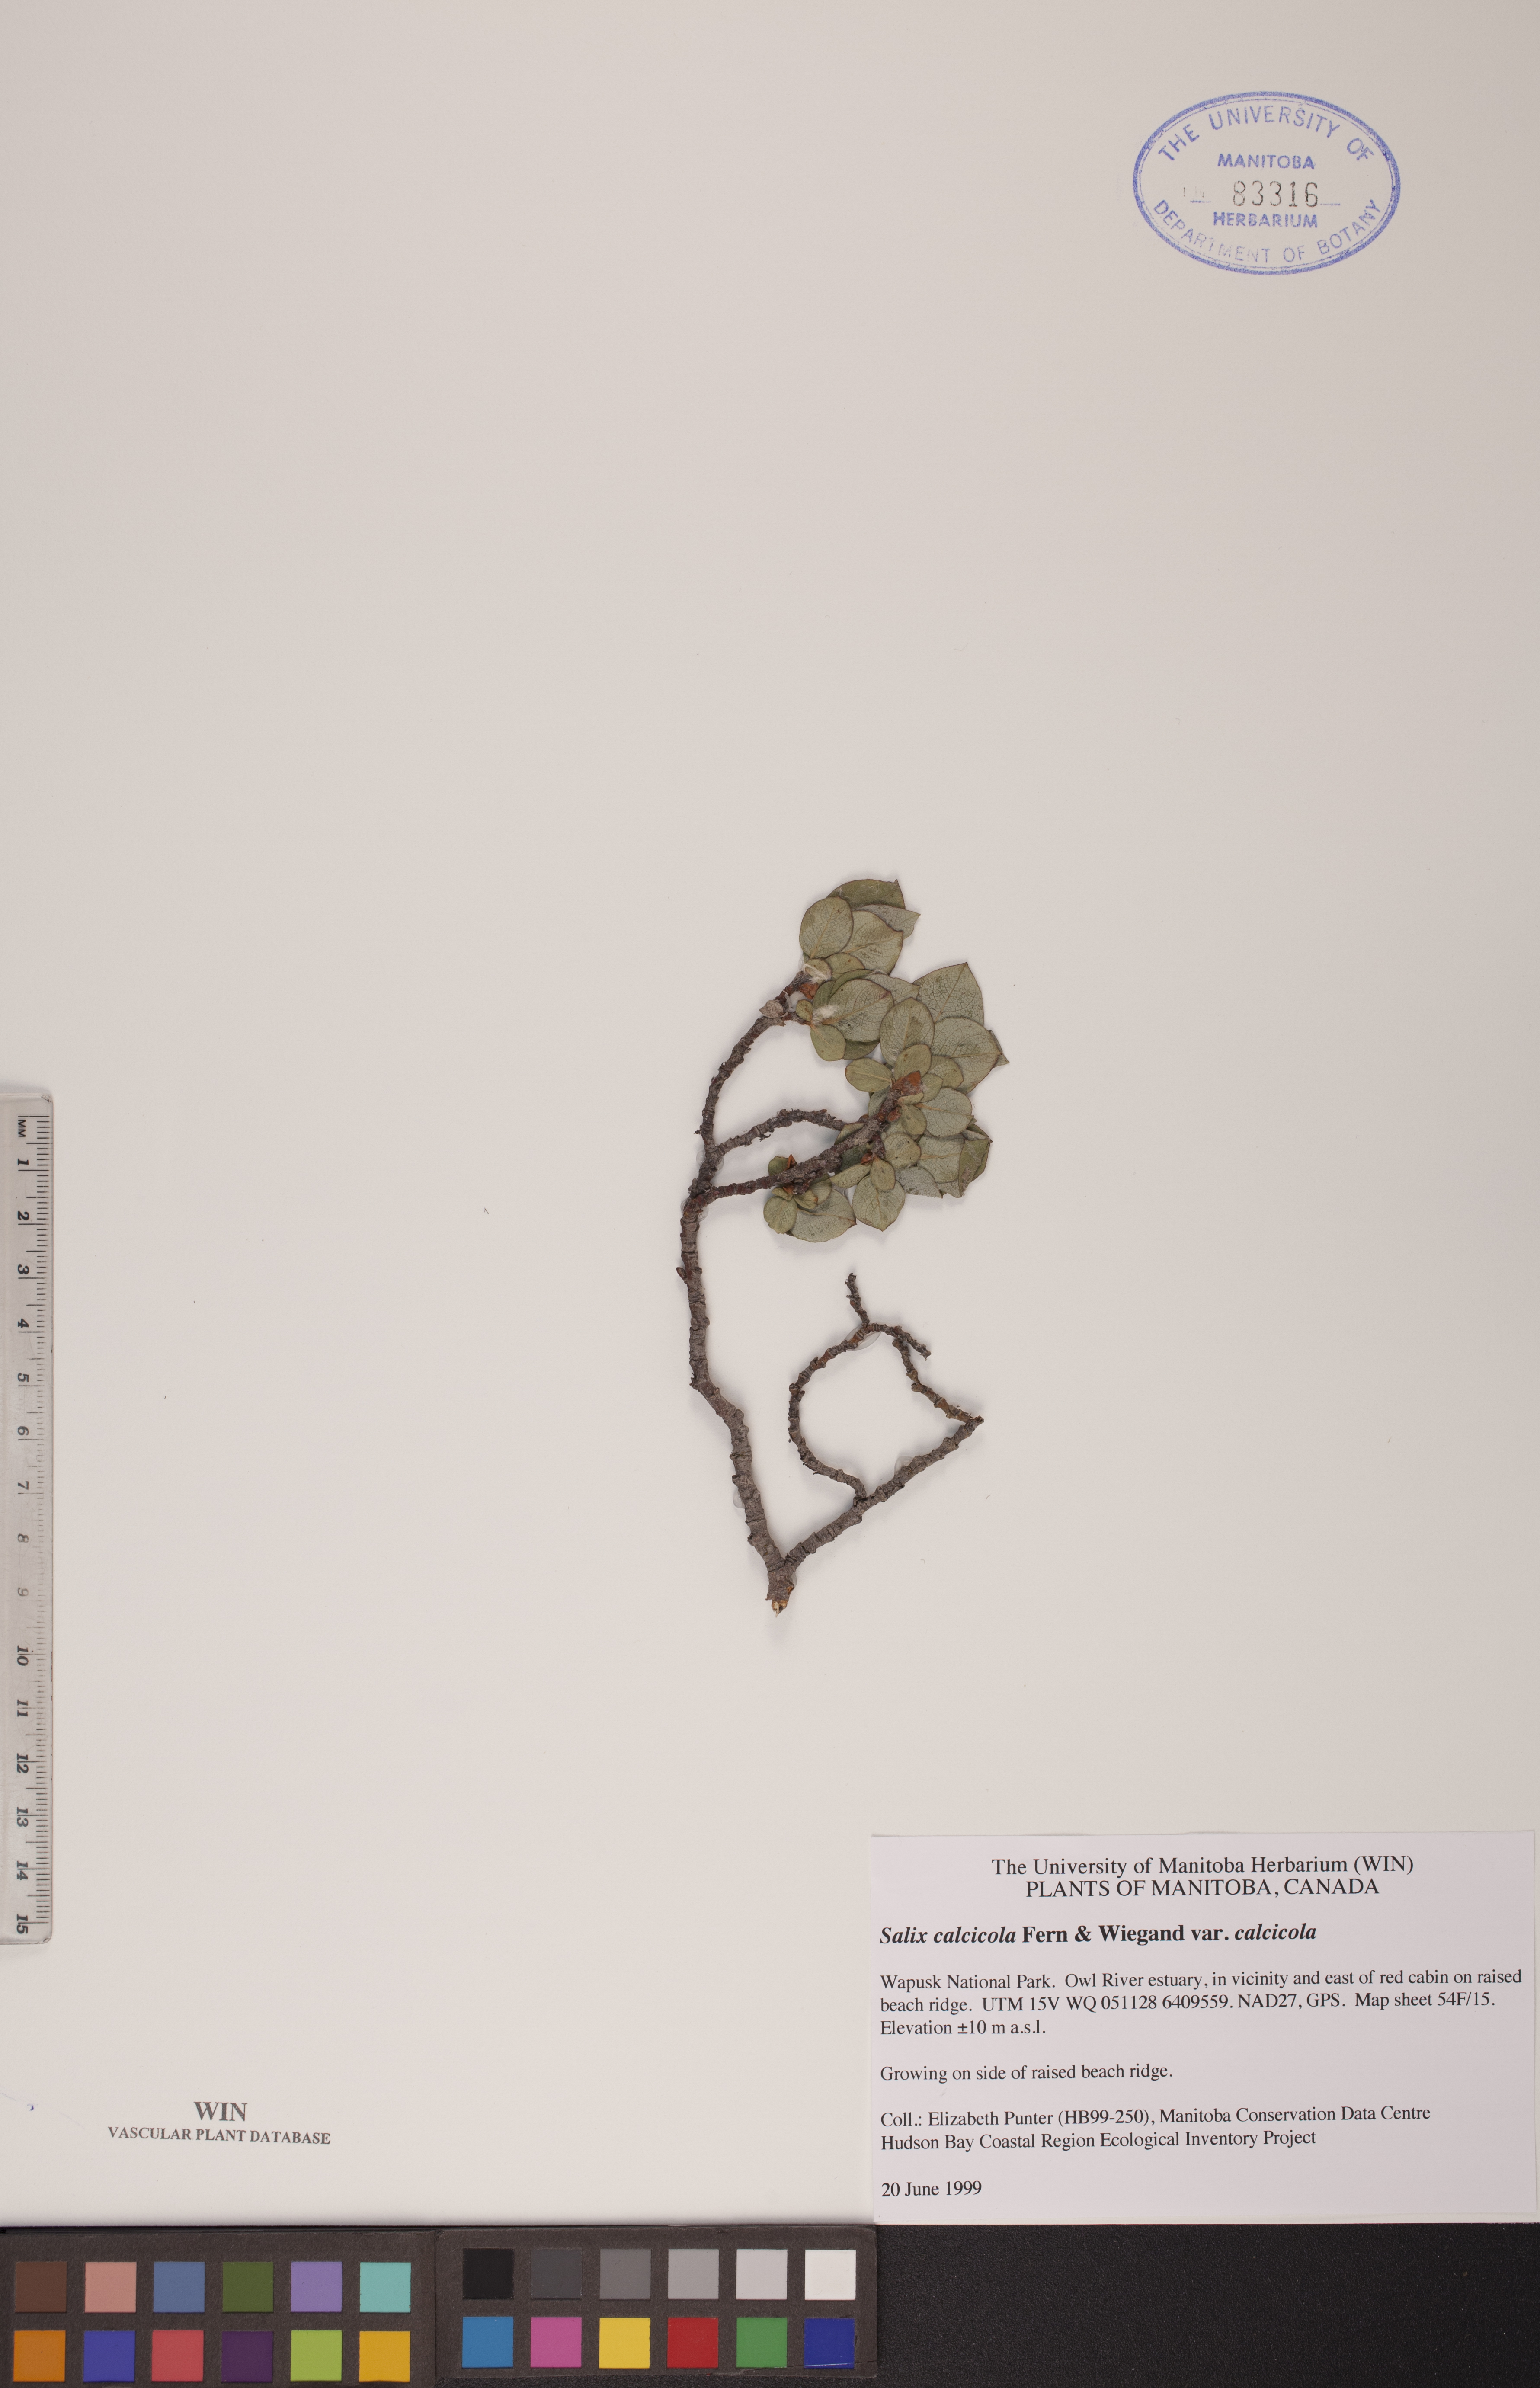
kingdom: Plantae
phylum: Tracheophyta
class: Magnoliopsida
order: Malpighiales
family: Salicaceae
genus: Salix
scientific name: Salix calcicola
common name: Calcareous willow
